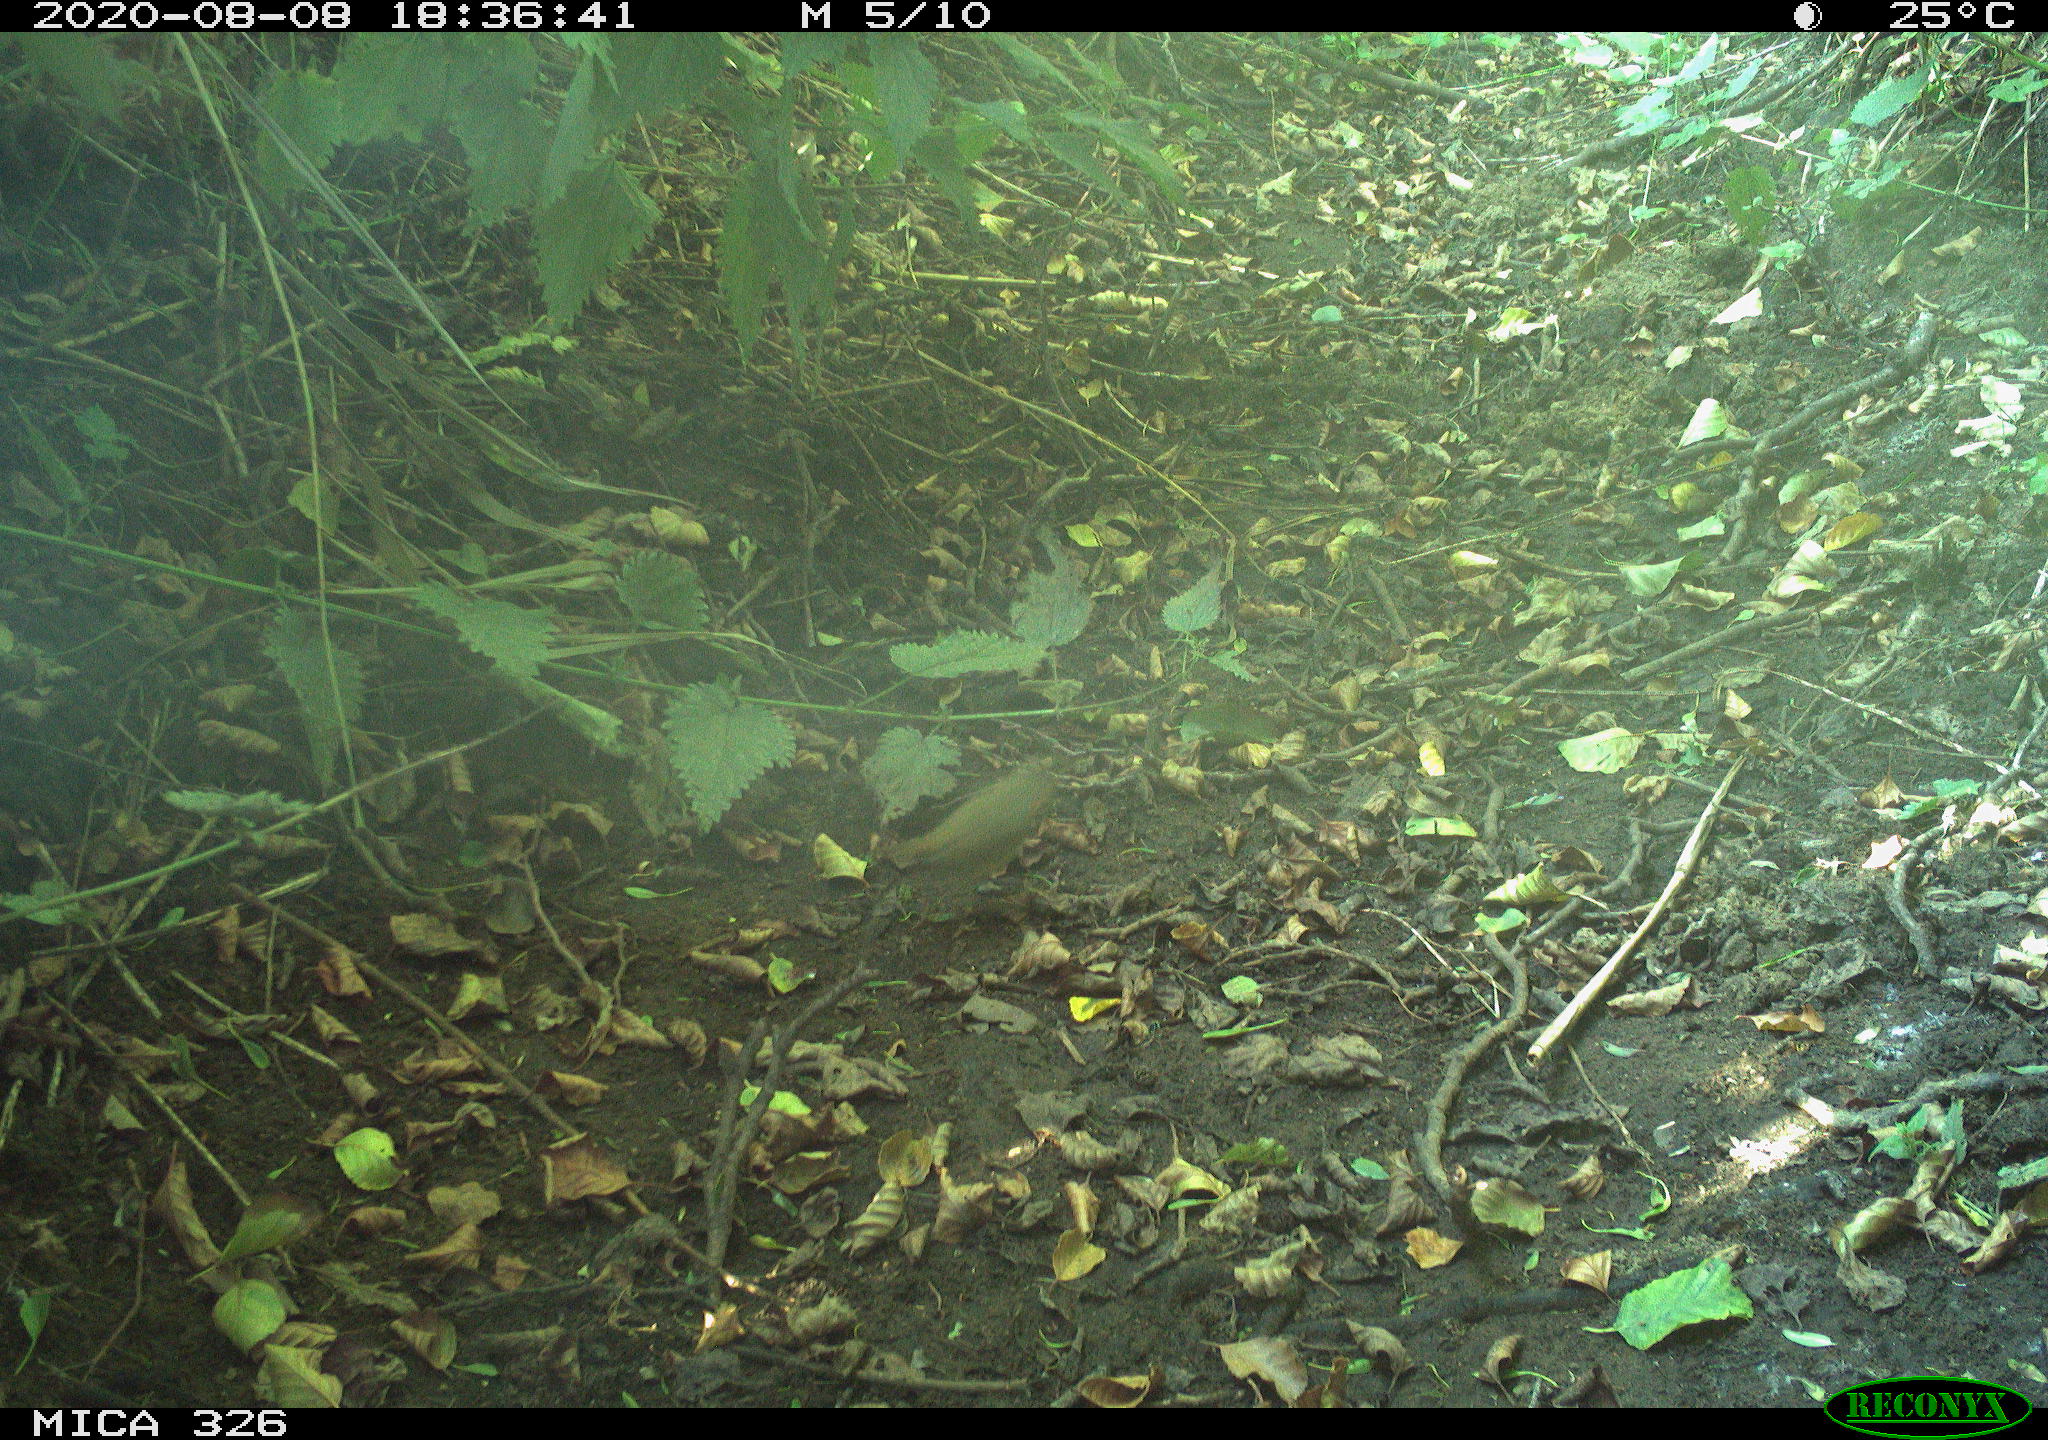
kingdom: Animalia
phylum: Chordata
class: Aves
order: Passeriformes
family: Muscicapidae
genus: Erithacus
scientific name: Erithacus rubecula
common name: European robin
